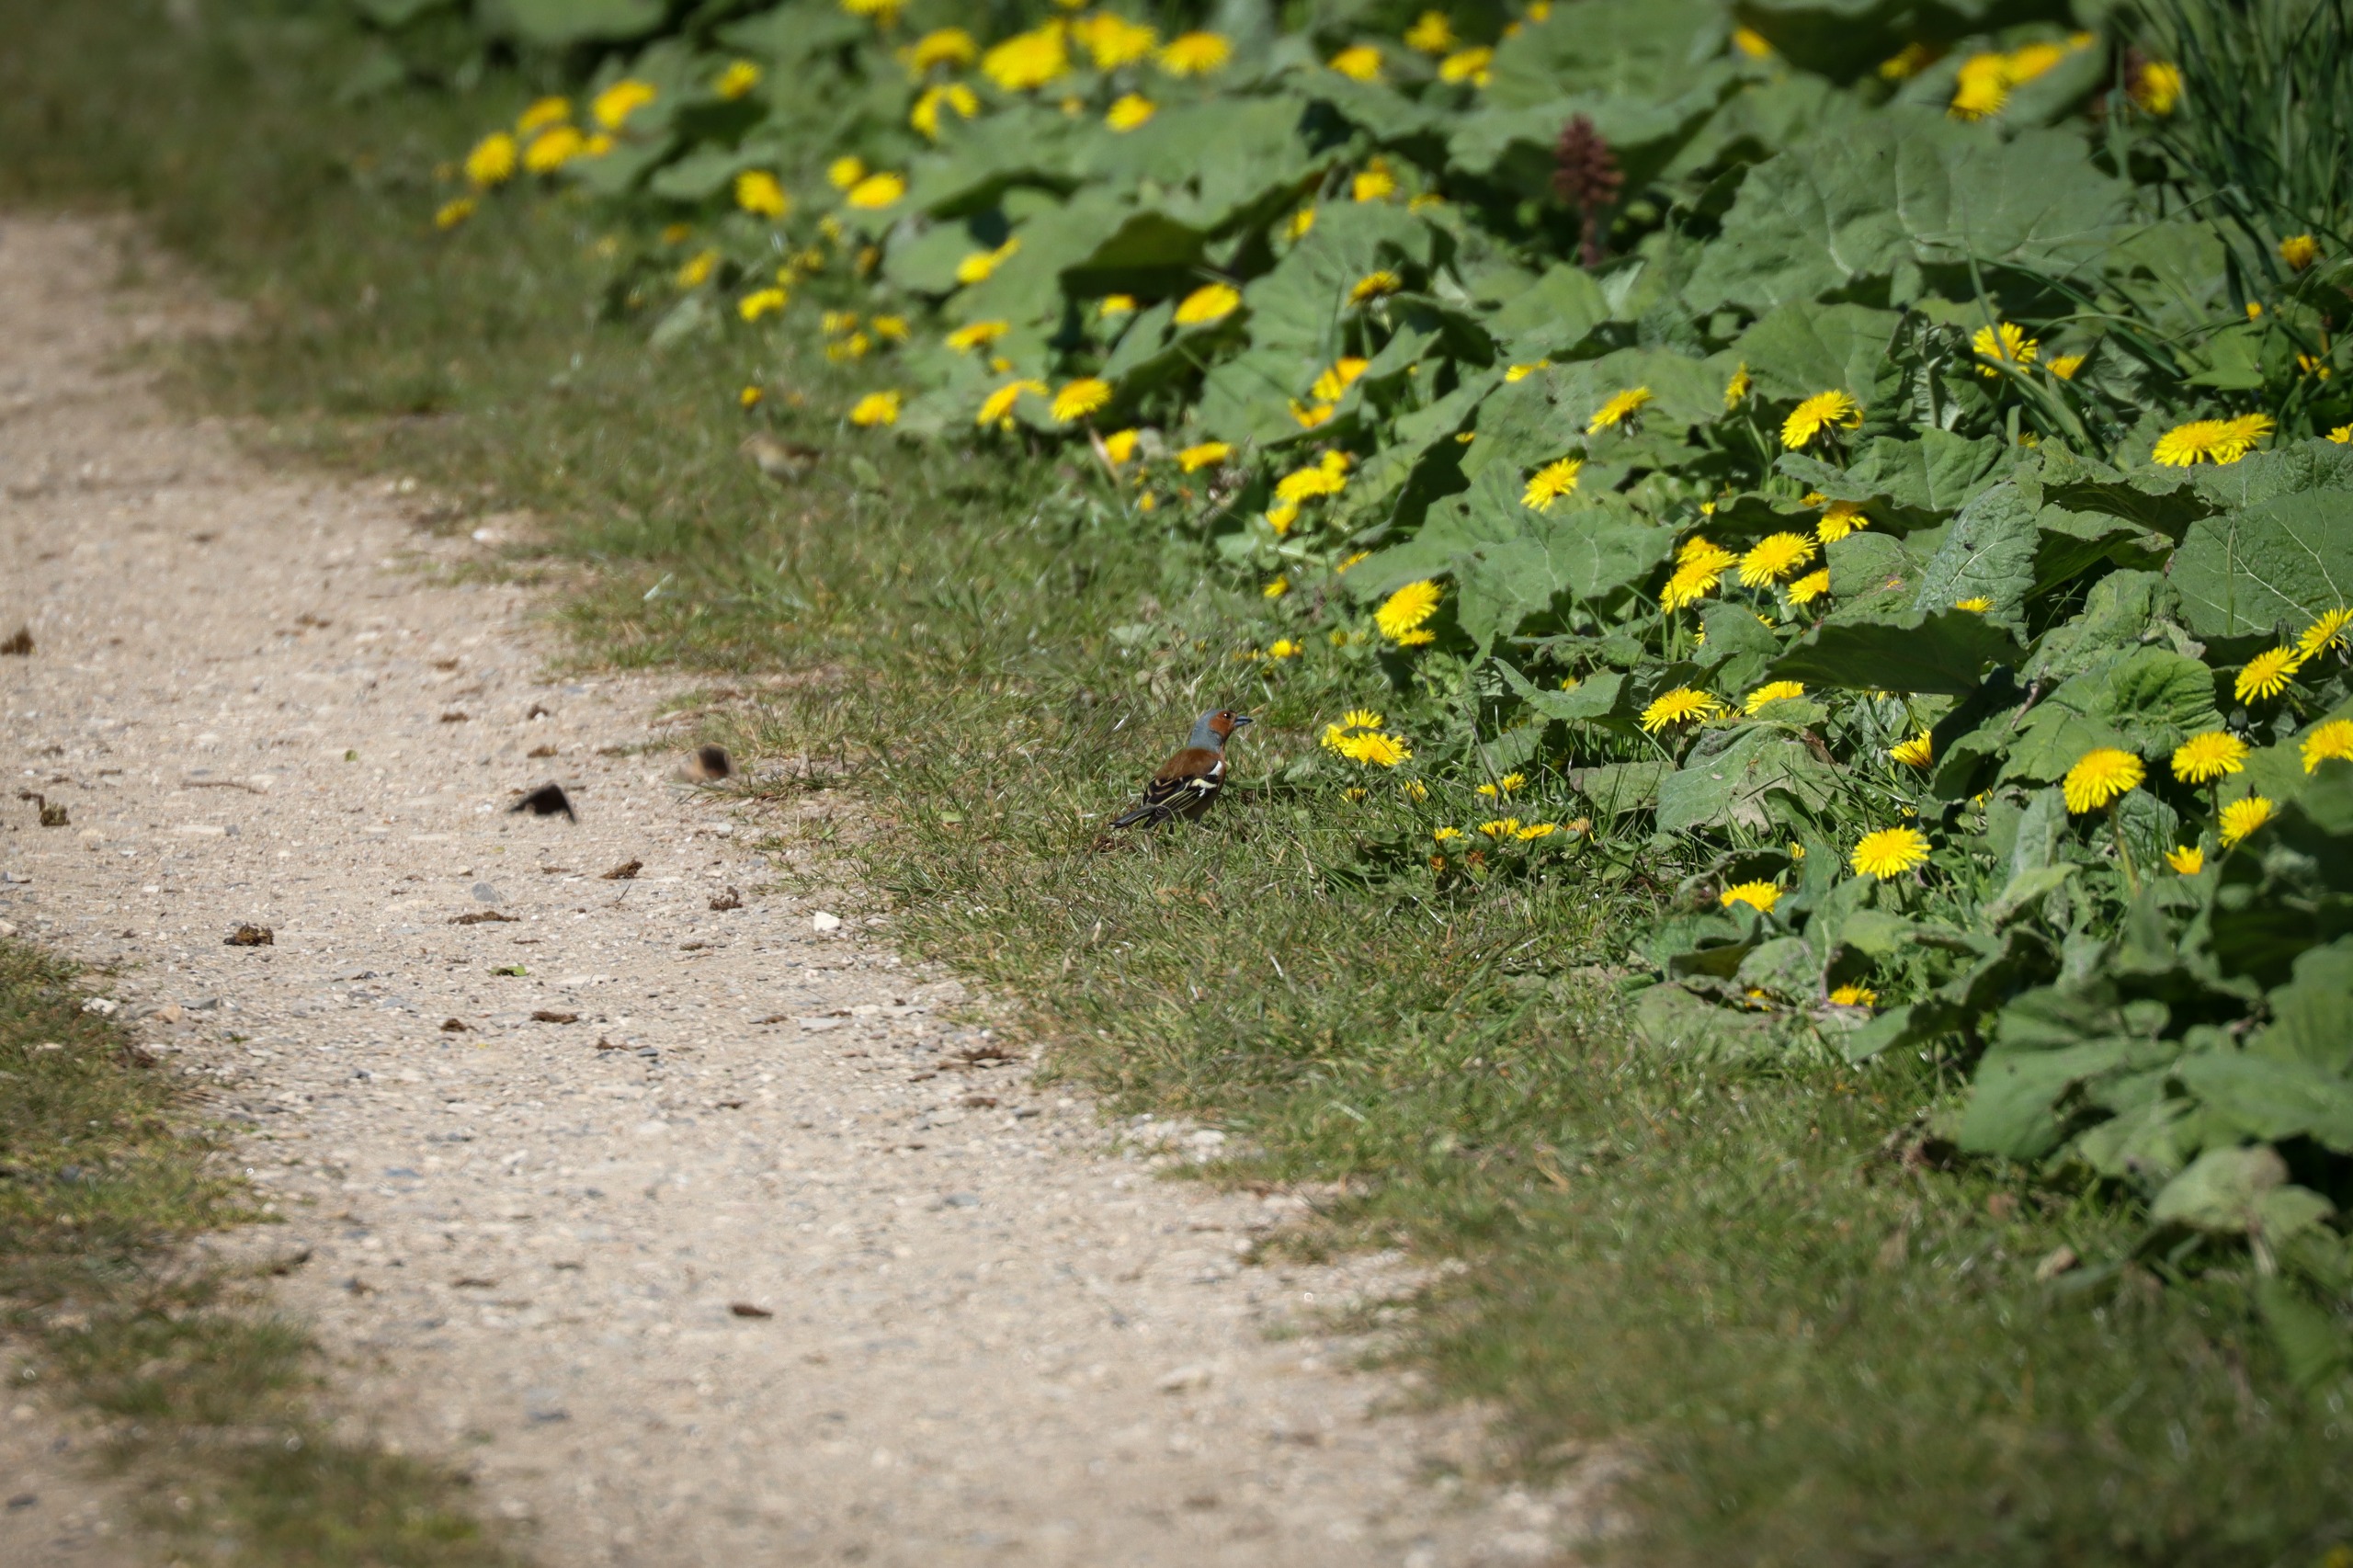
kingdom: Animalia
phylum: Chordata
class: Aves
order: Passeriformes
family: Fringillidae
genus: Fringilla
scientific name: Fringilla coelebs
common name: Bogfinke
